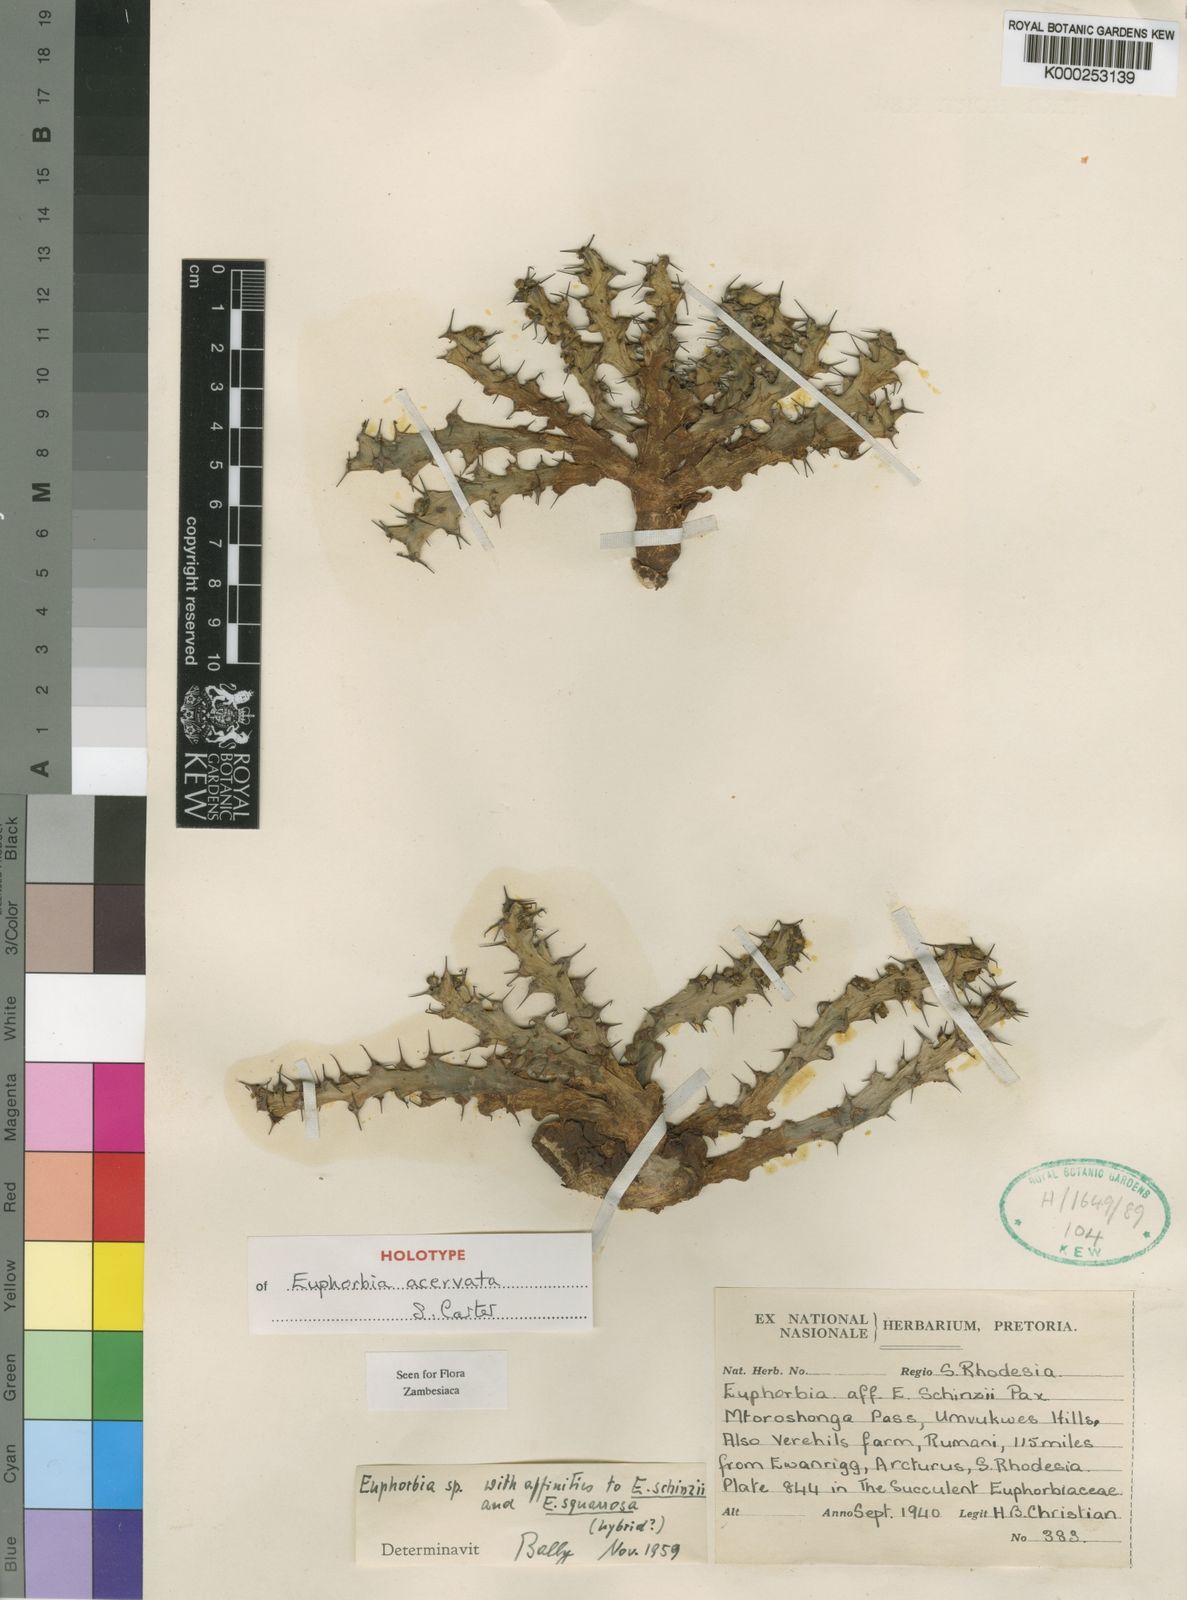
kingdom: Plantae
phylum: Tracheophyta
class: Magnoliopsida
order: Malpighiales
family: Euphorbiaceae
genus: Euphorbia
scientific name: Euphorbia acervata
